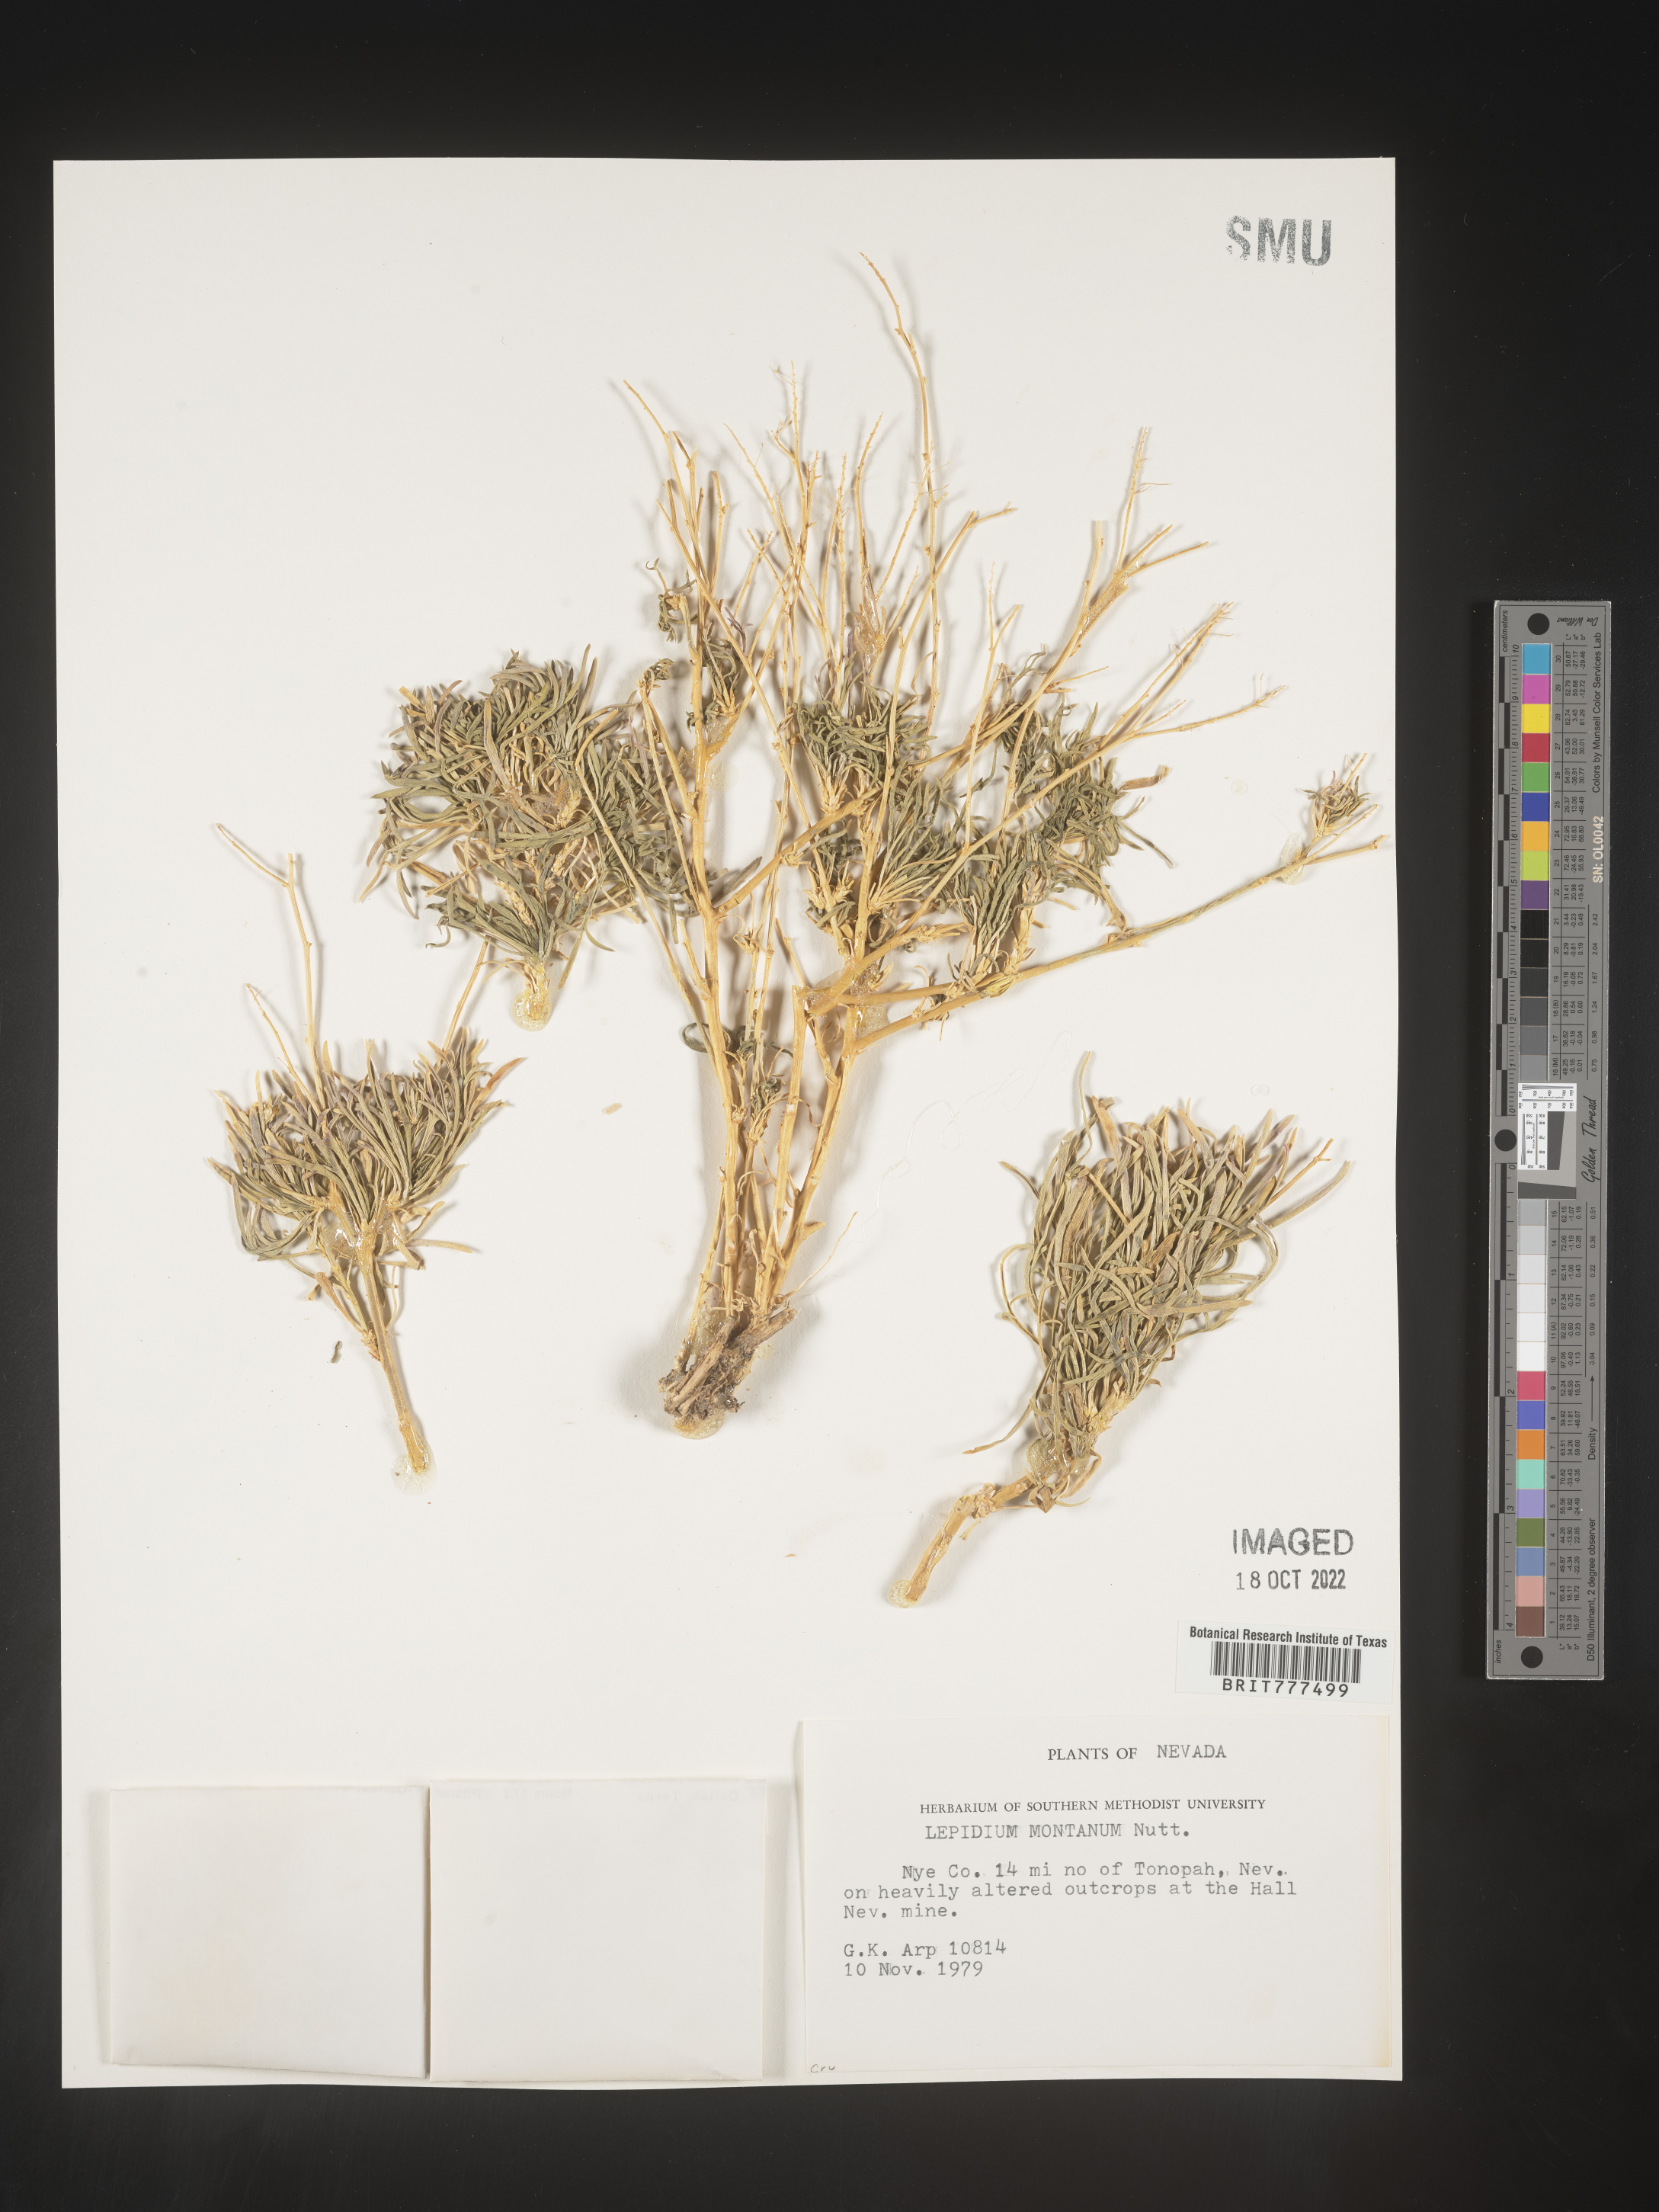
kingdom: Plantae
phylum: Tracheophyta
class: Magnoliopsida
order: Brassicales
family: Brassicaceae
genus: Lepidium
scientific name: Lepidium montanum
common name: Mountain pepperplant
